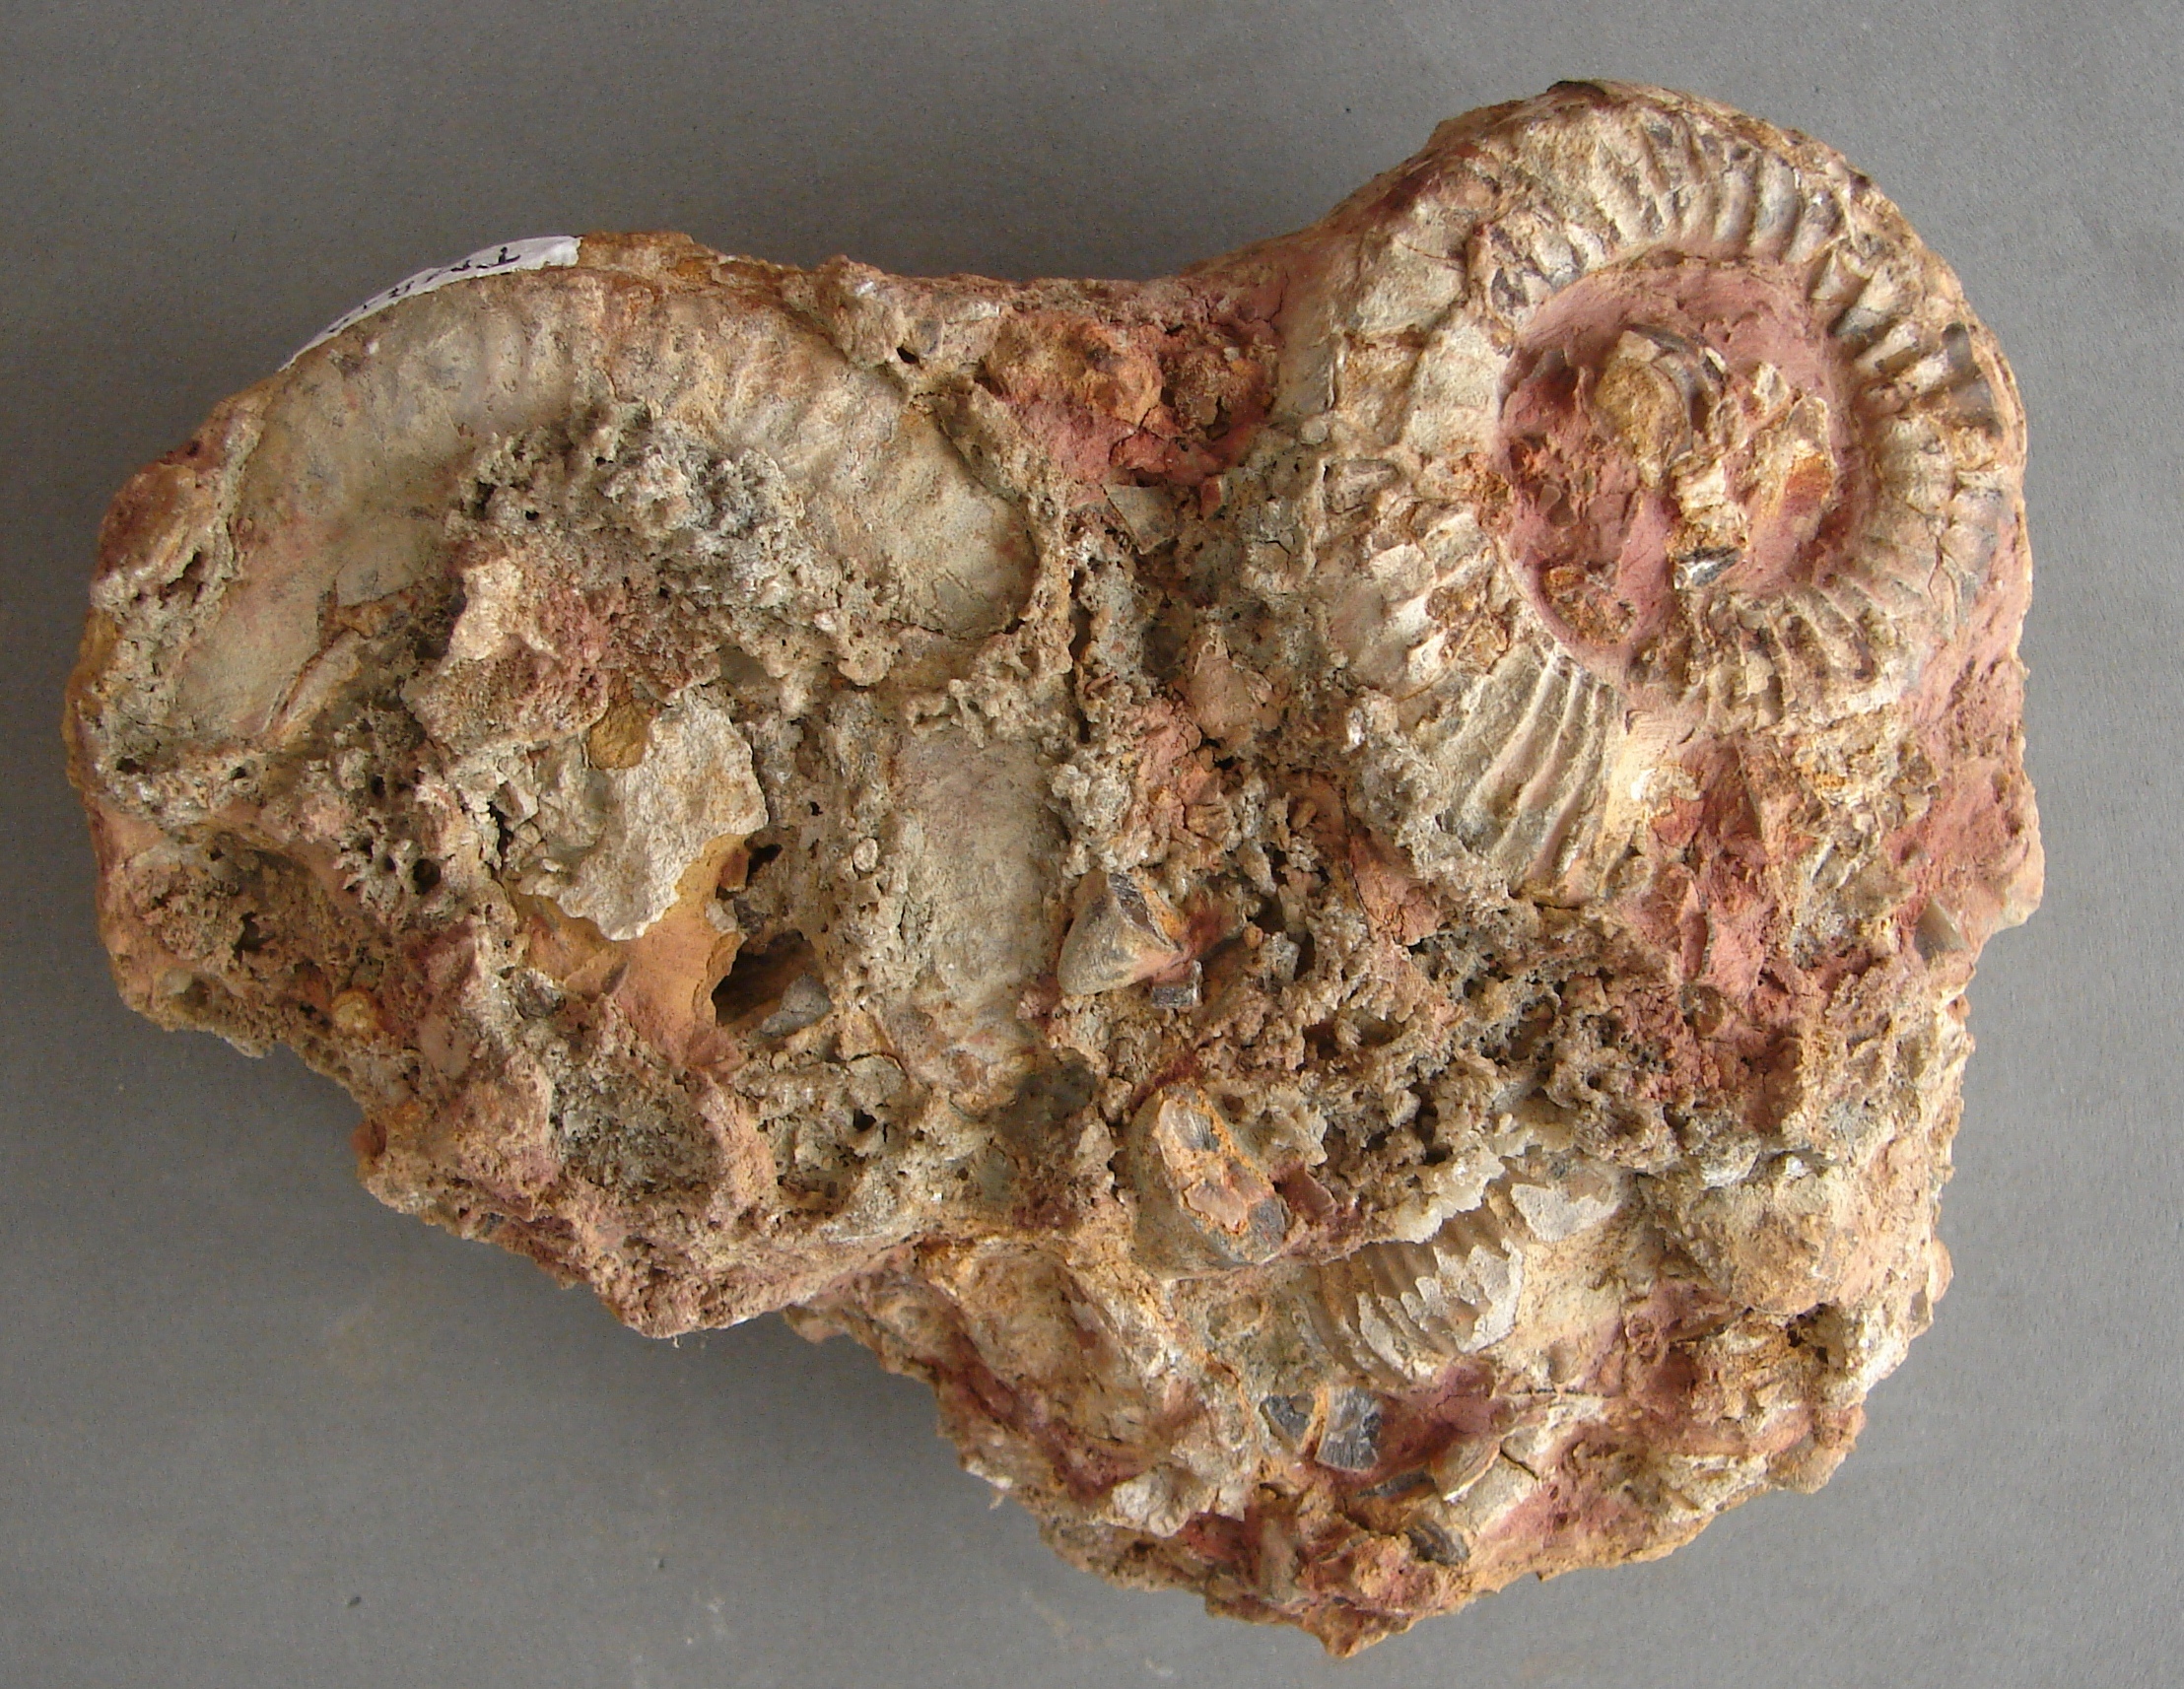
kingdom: Animalia
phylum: Mollusca
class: Cephalopoda
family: Dactylioceratidae
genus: Catacoeloceras
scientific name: Catacoeloceras crassum
